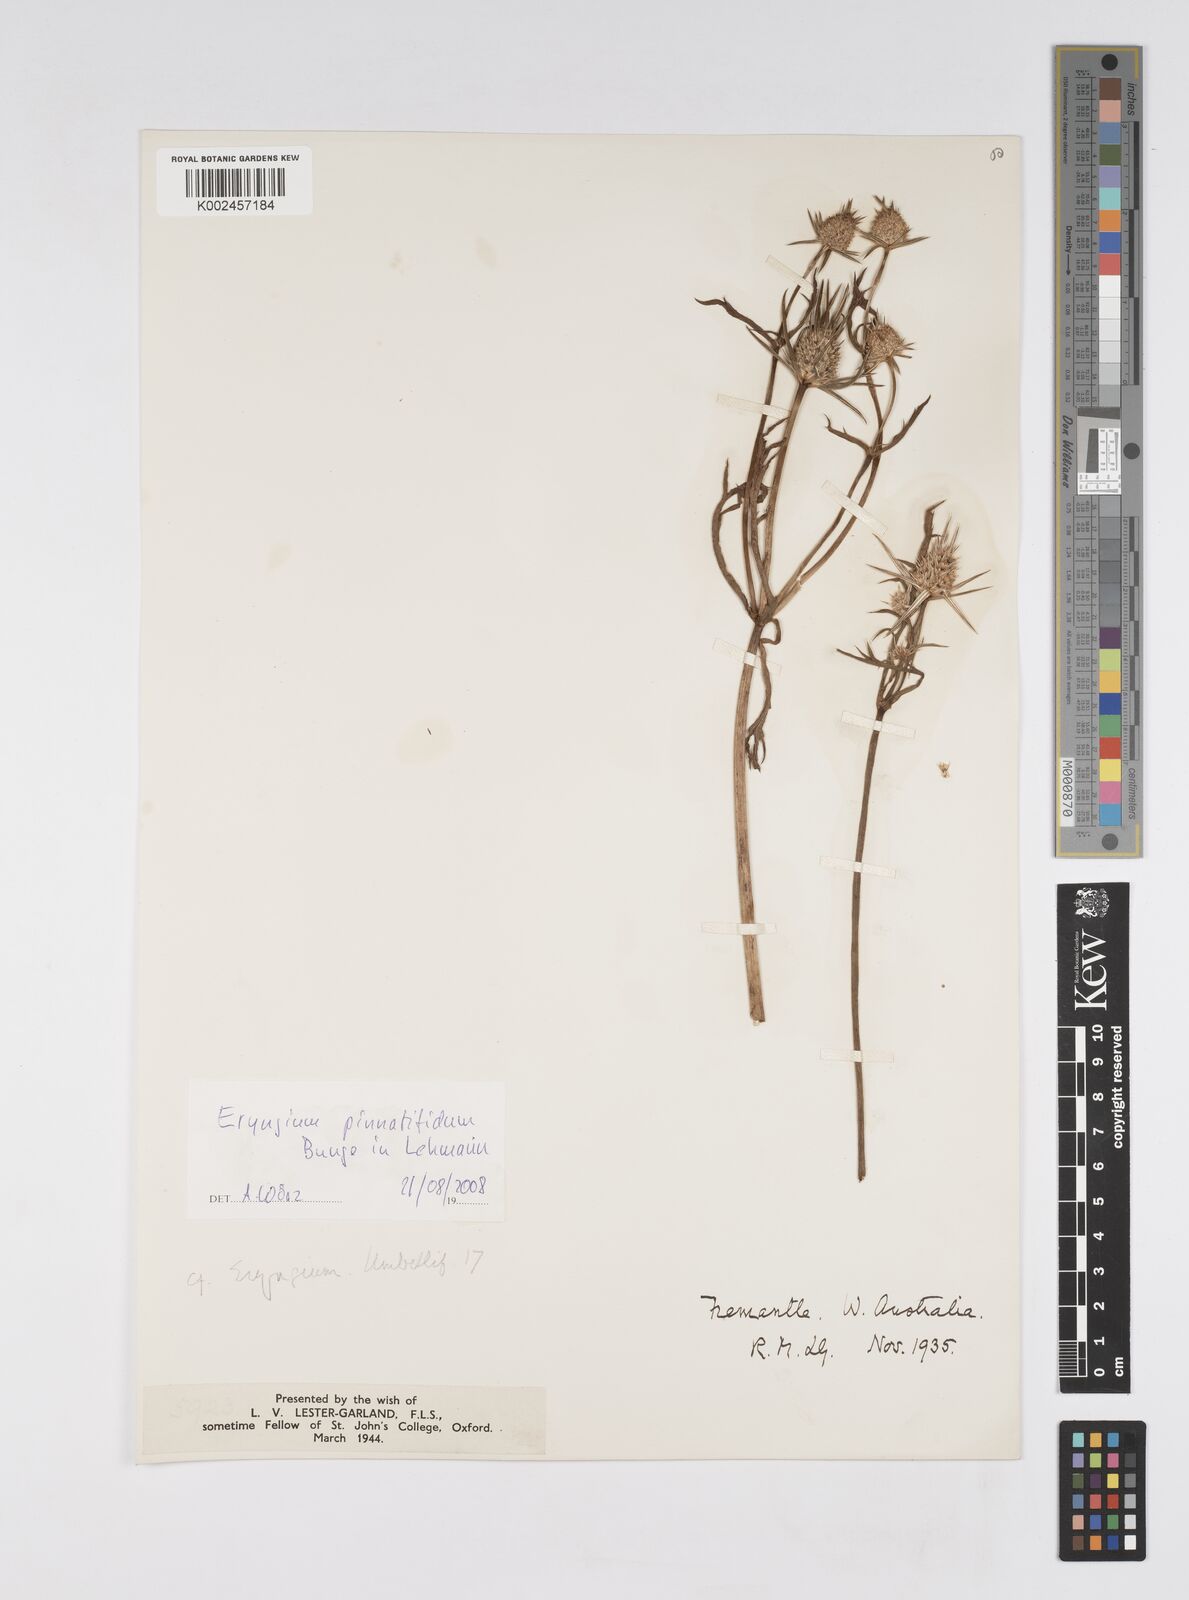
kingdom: Plantae
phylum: Tracheophyta
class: Magnoliopsida
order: Apiales
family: Apiaceae
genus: Eryngium
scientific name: Eryngium pinnatifidum
